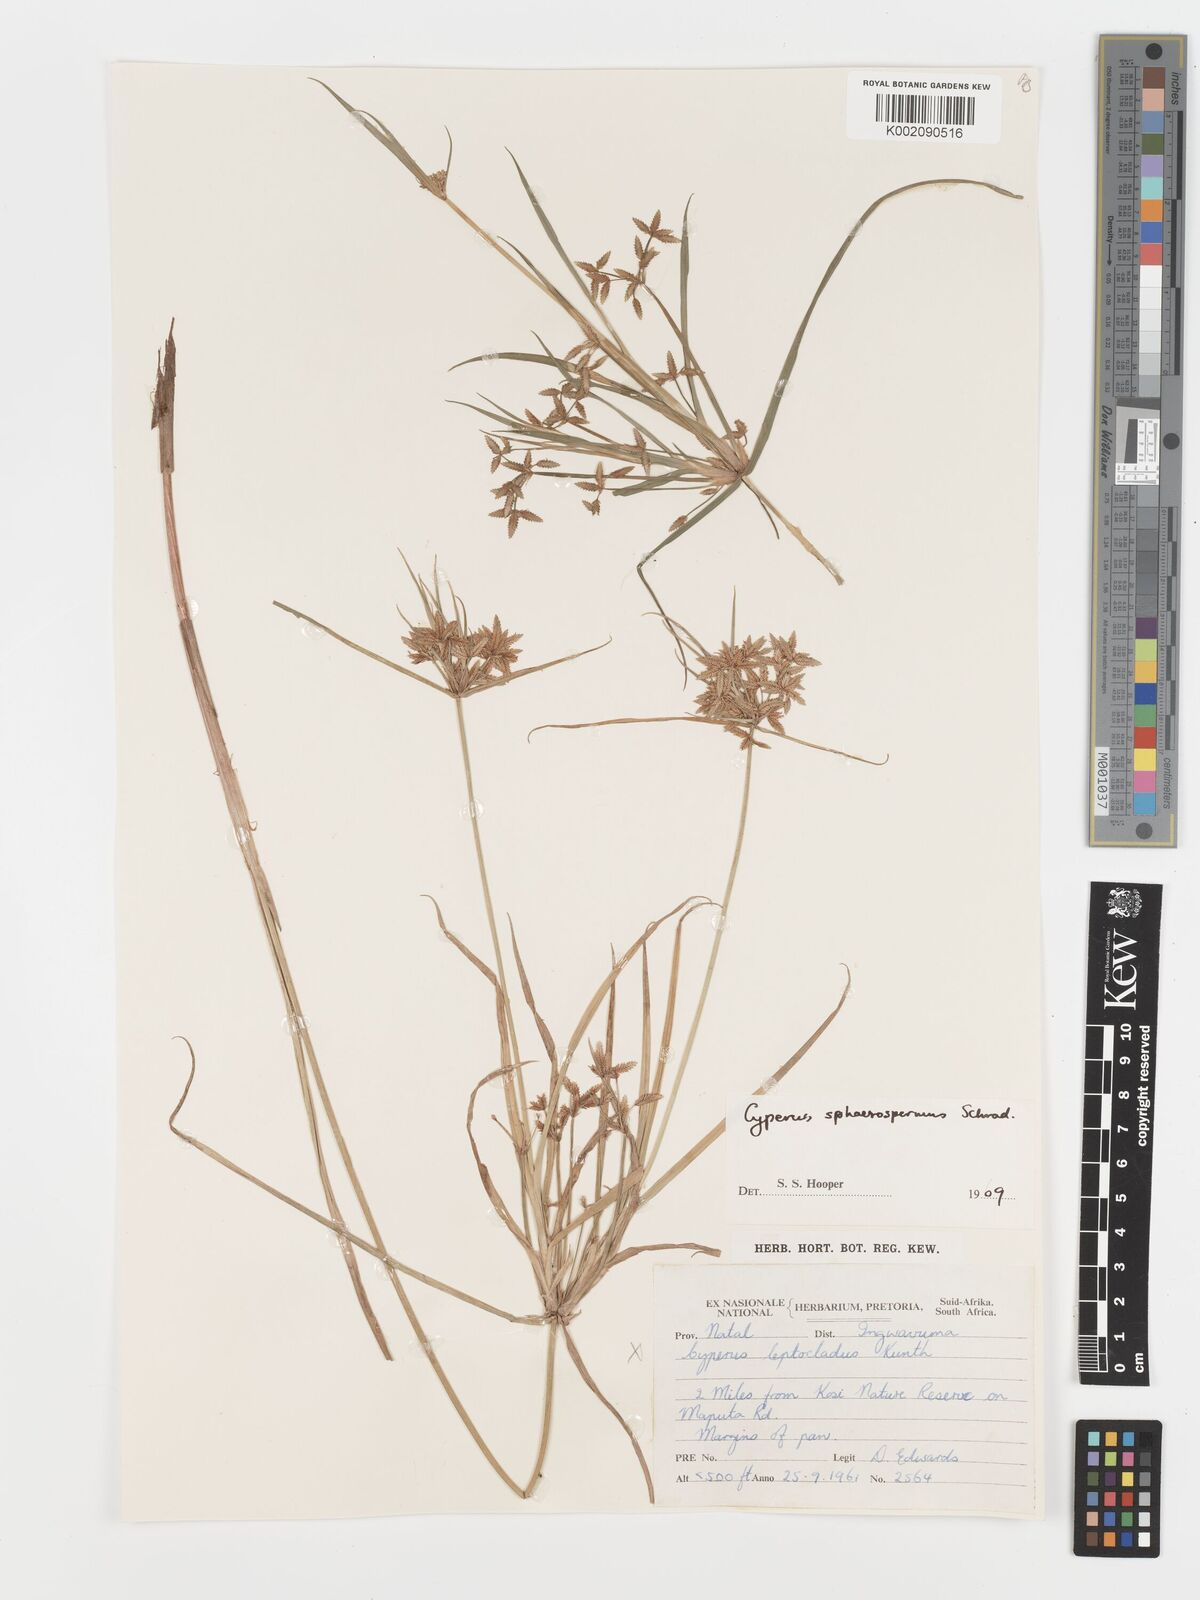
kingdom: Plantae
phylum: Tracheophyta
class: Liliopsida
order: Poales
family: Cyperaceae
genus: Cyperus
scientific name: Cyperus sphaerospermus
